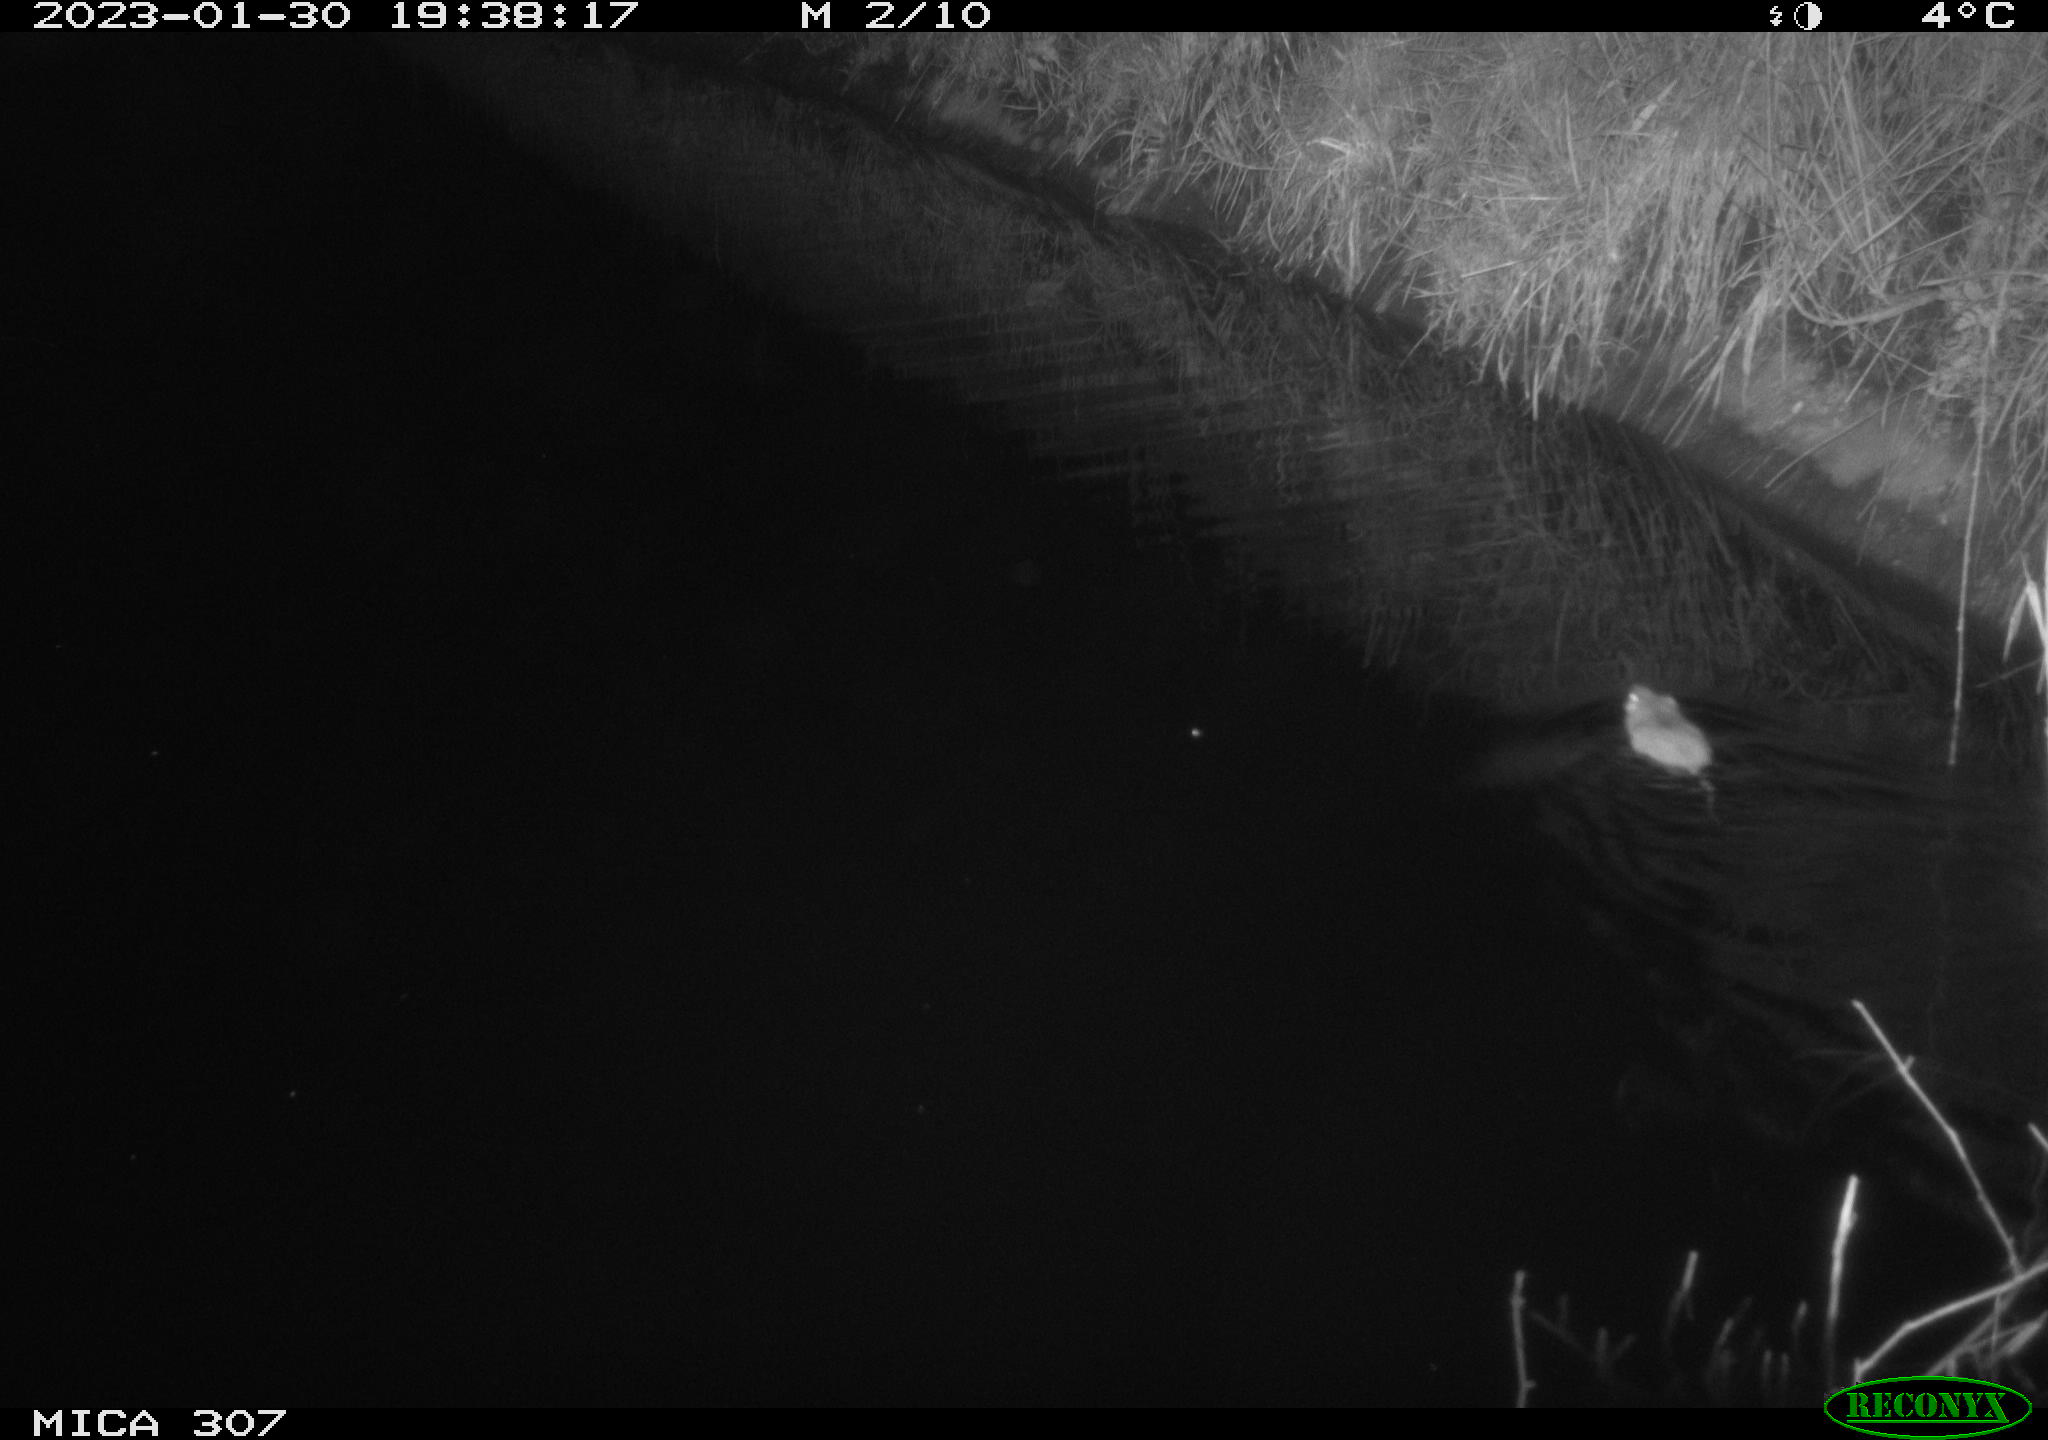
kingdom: Animalia
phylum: Chordata
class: Mammalia
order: Rodentia
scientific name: Rodentia
